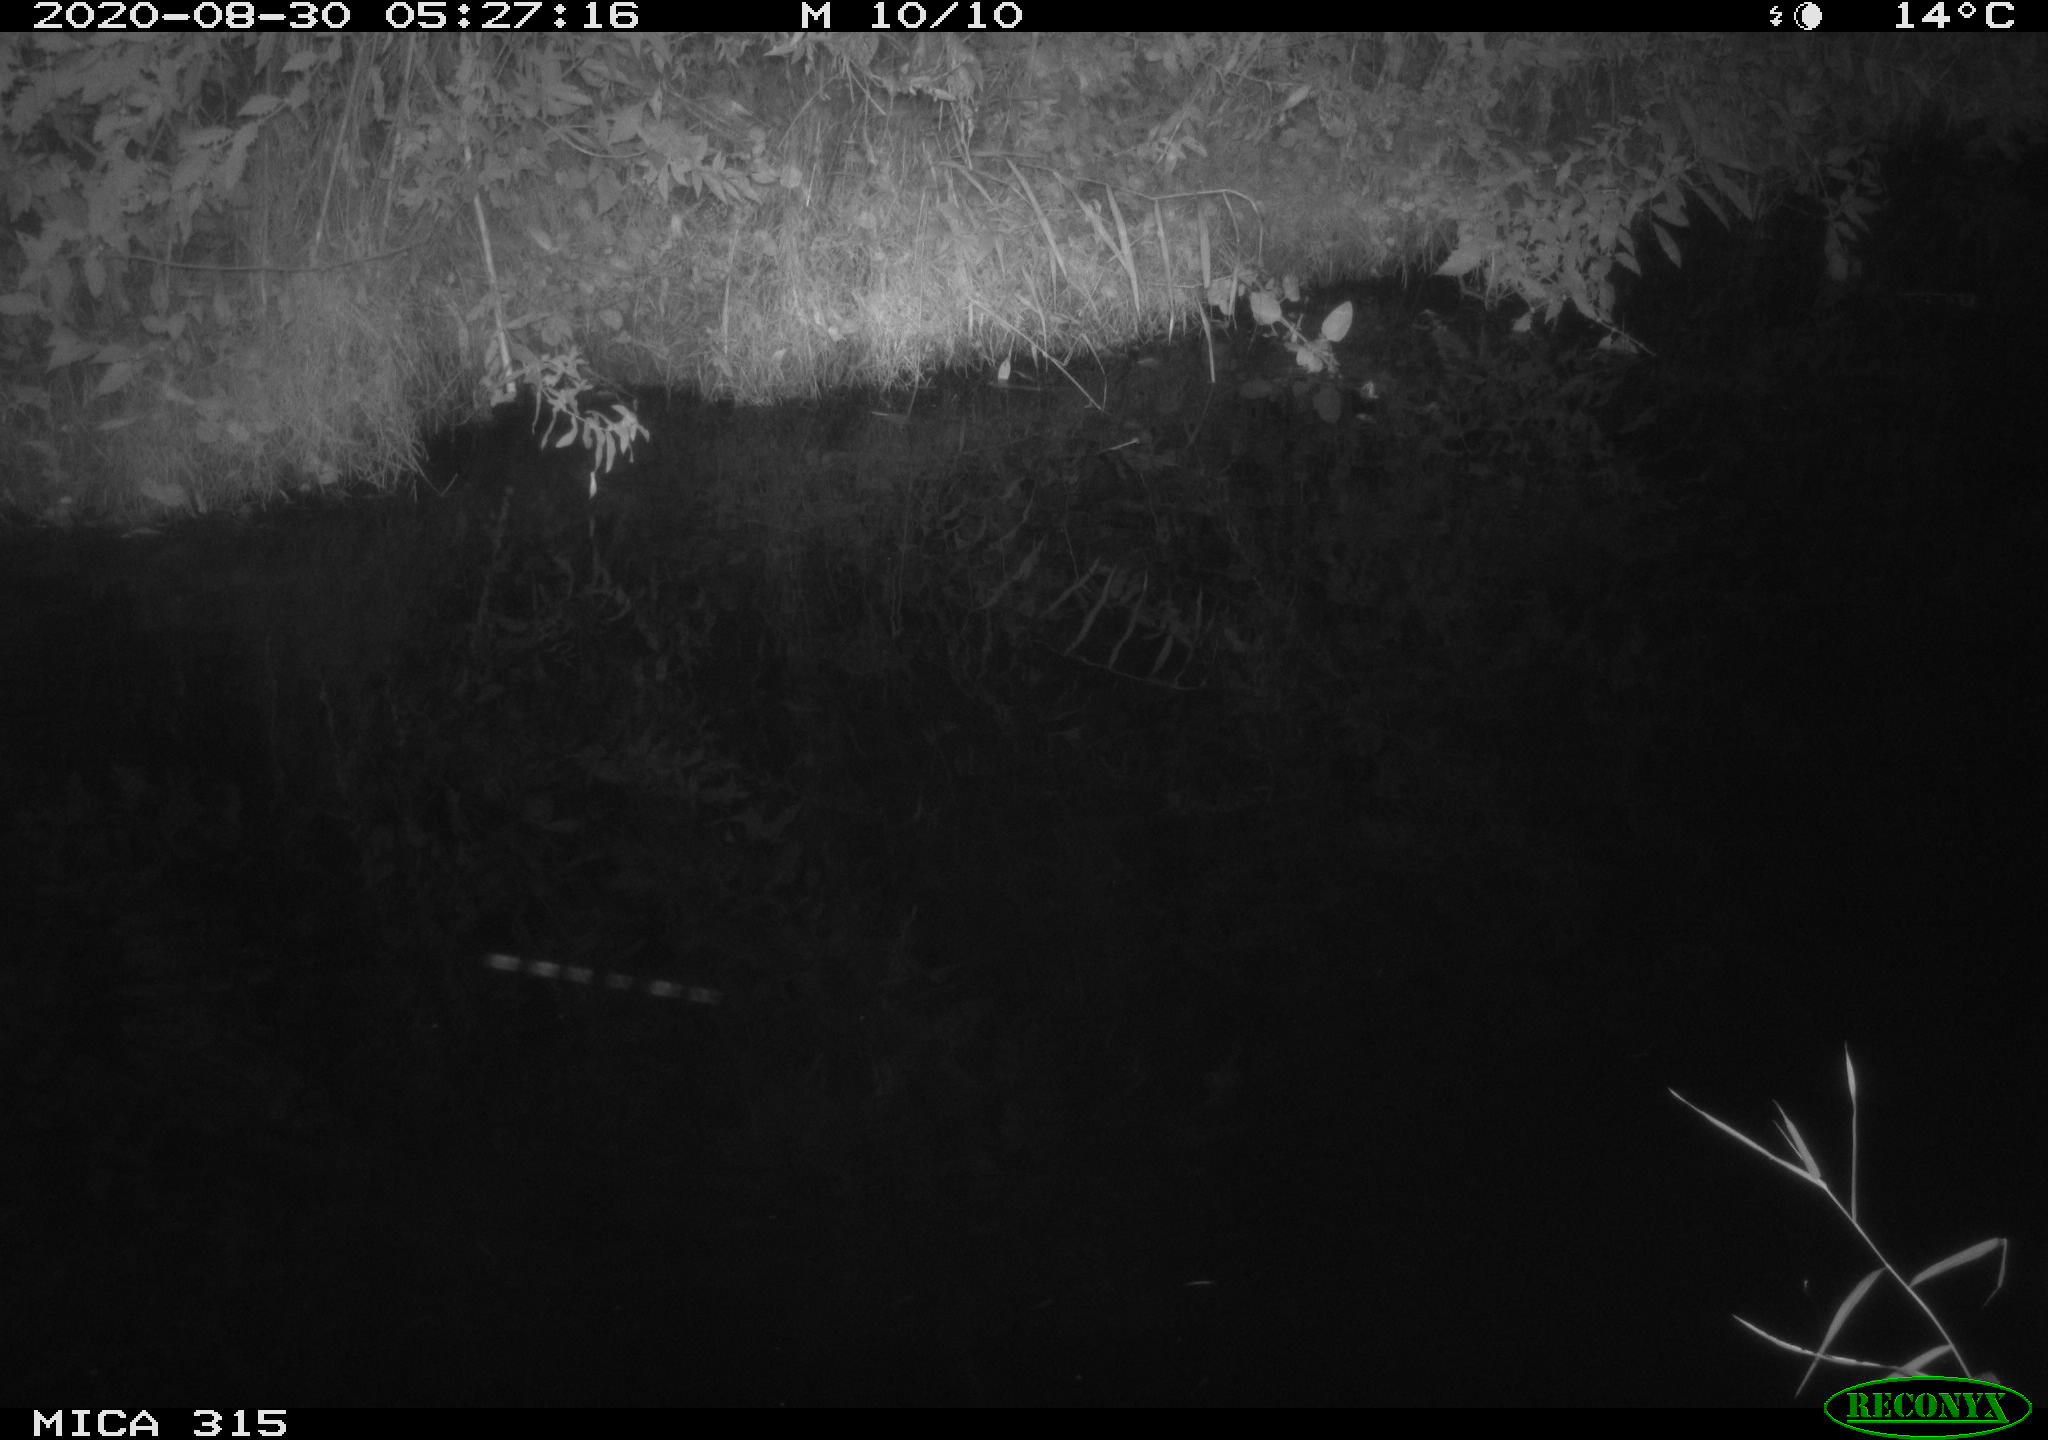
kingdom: Animalia
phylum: Chordata
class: Aves
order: Anseriformes
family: Anatidae
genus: Anas
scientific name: Anas platyrhynchos
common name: Mallard
